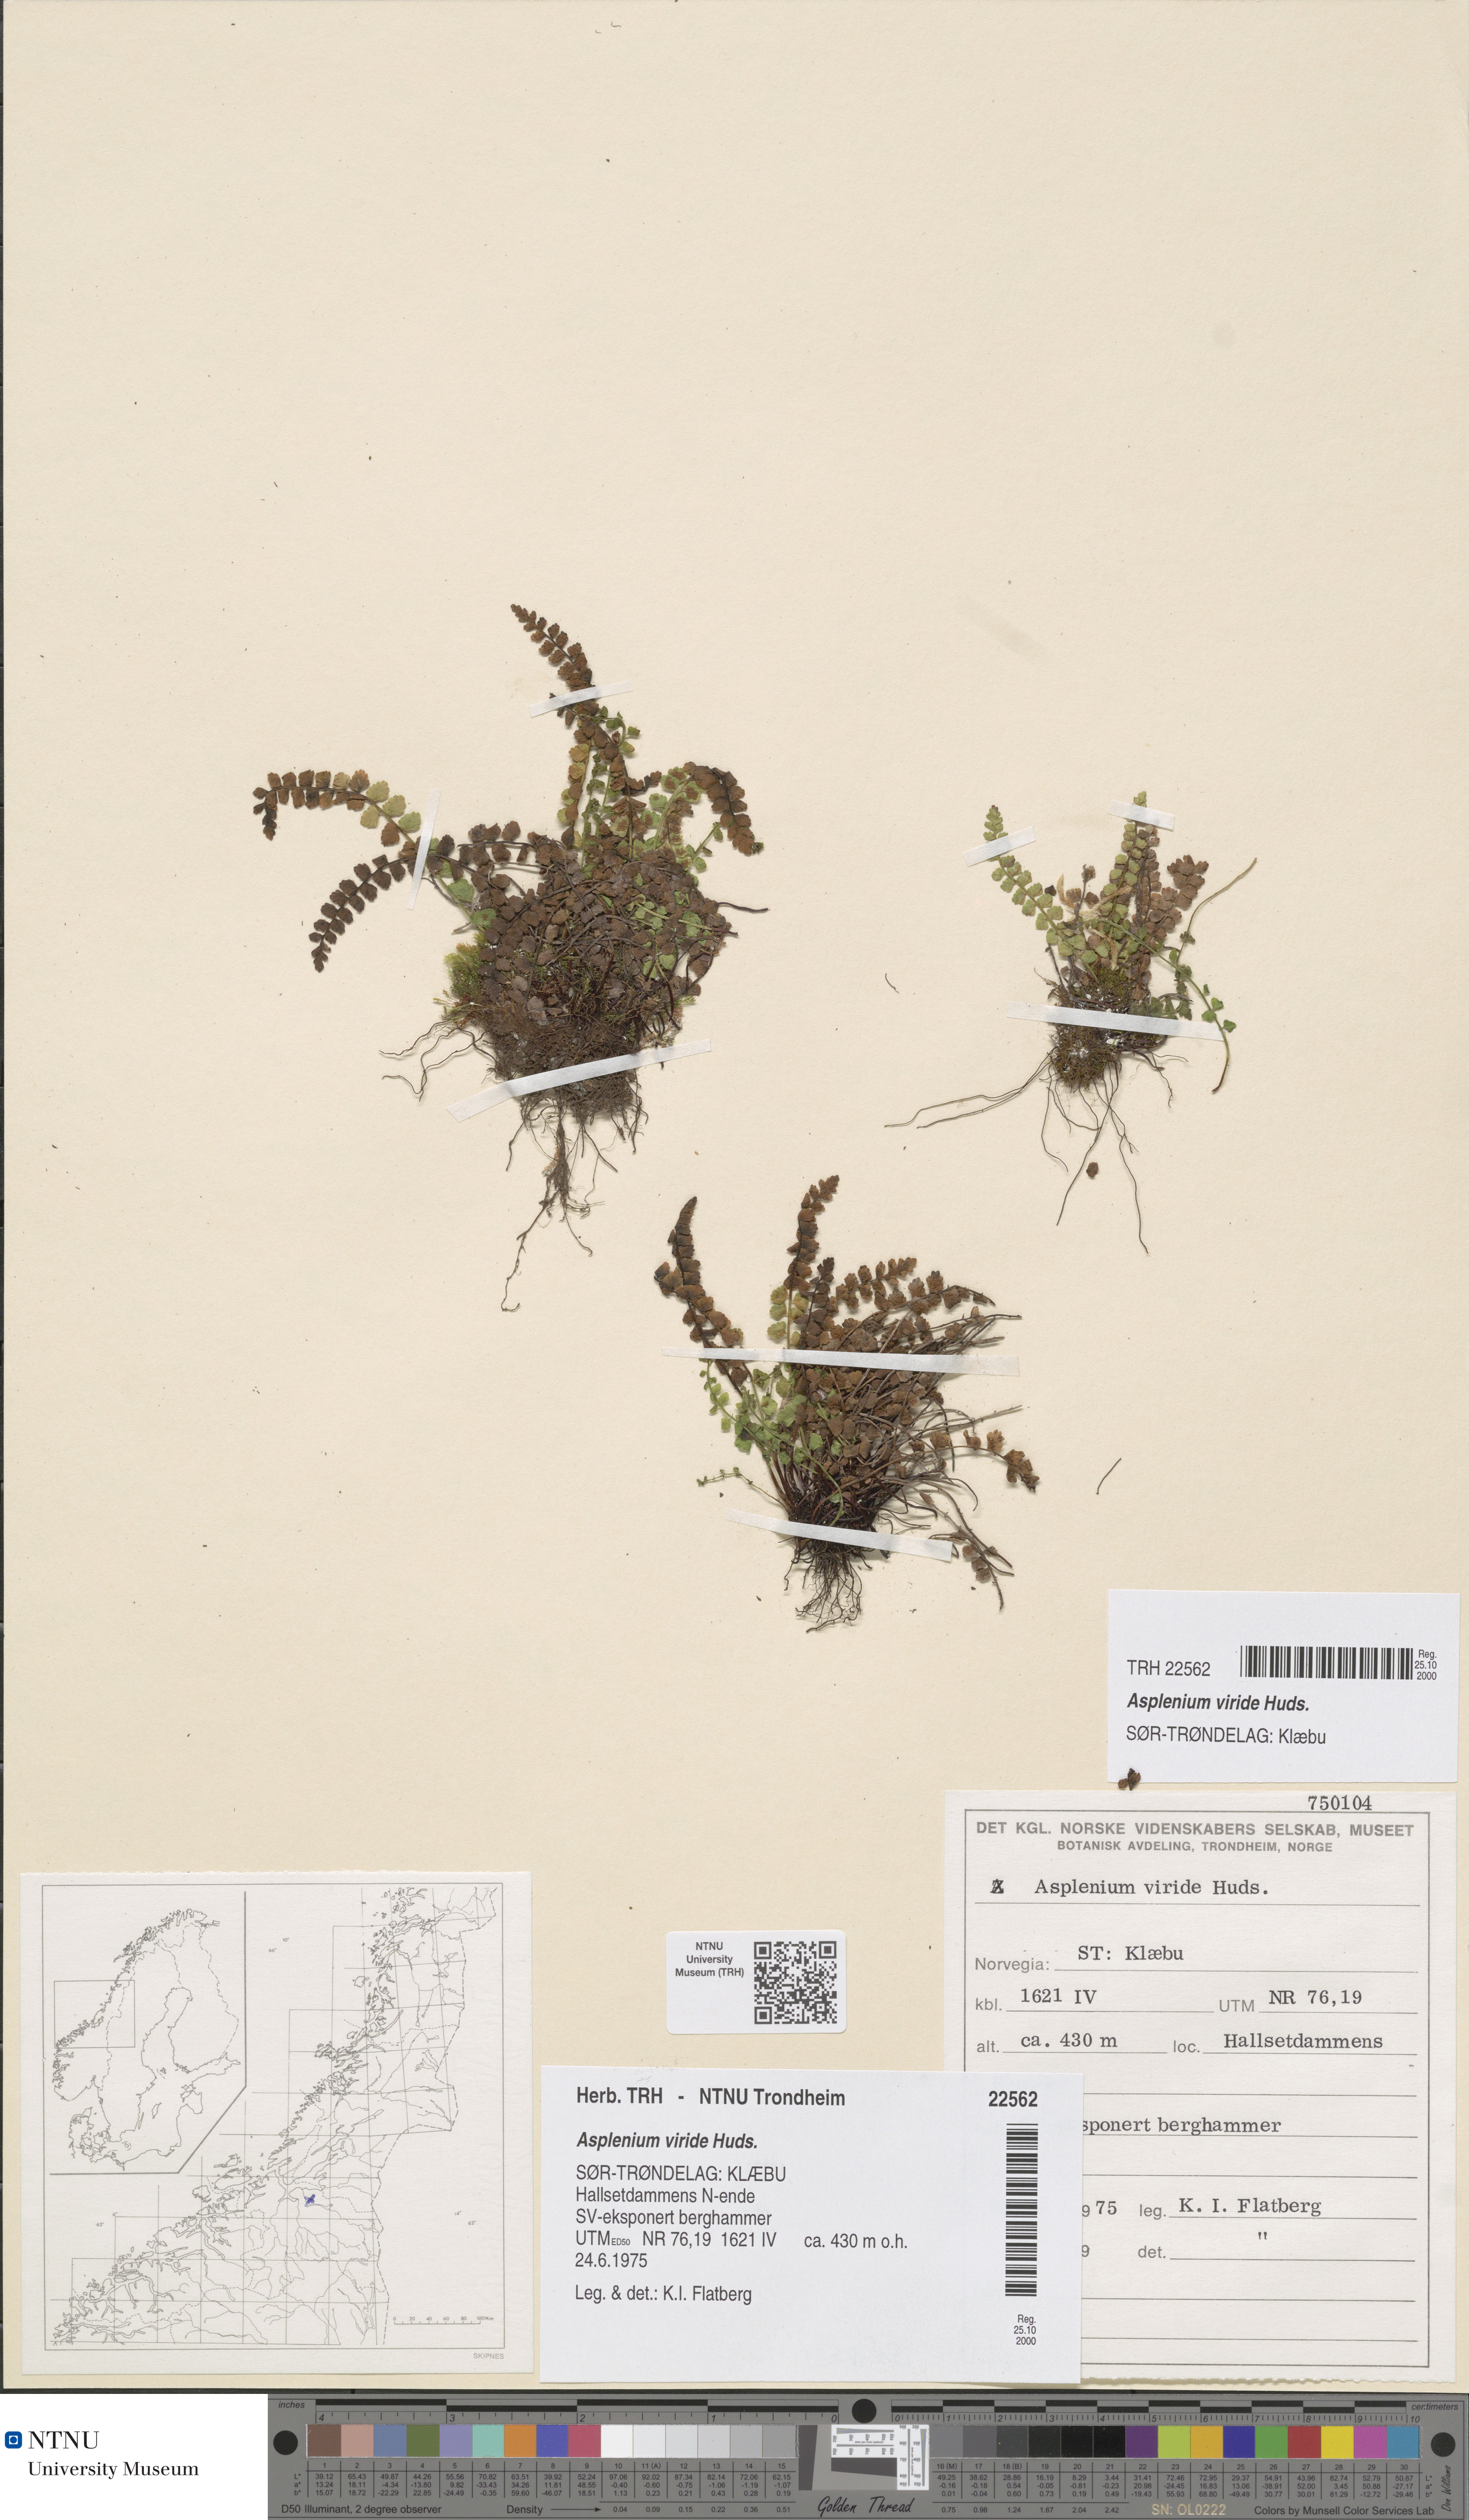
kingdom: Plantae
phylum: Tracheophyta
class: Polypodiopsida
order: Polypodiales
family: Aspleniaceae
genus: Asplenium
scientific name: Asplenium viride
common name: Green spleenwort
